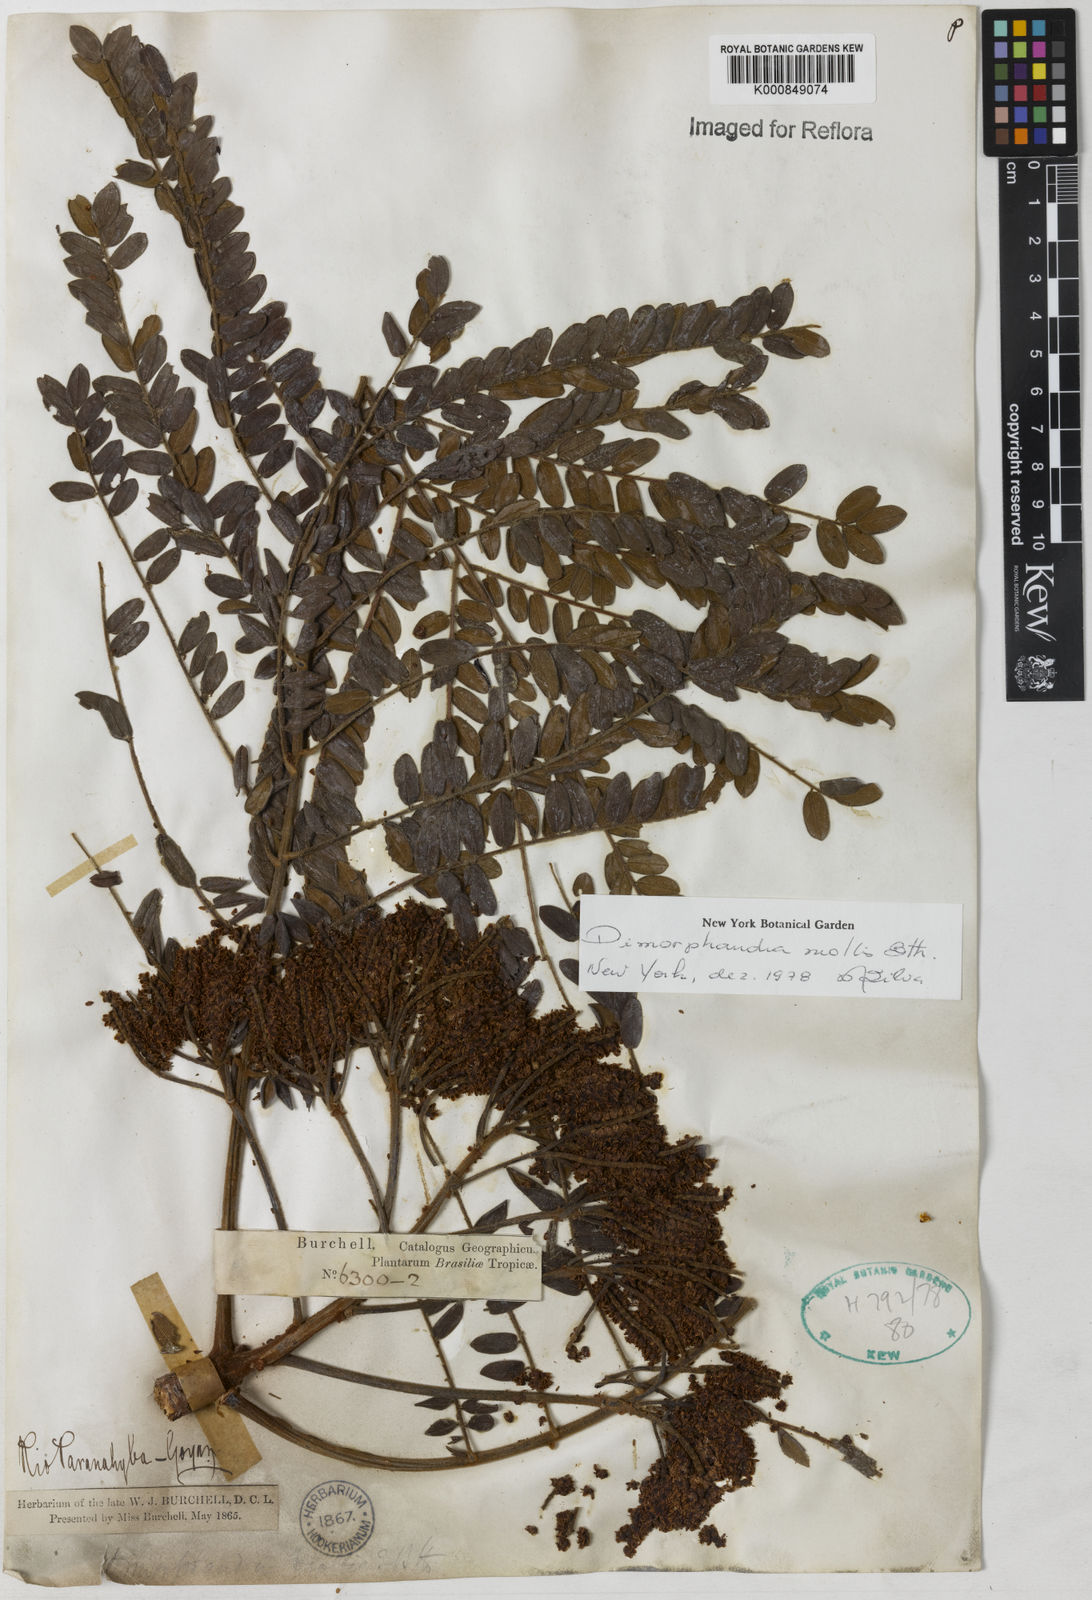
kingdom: Plantae
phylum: Tracheophyta
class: Magnoliopsida
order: Fabales
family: Fabaceae
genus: Dimorphandra
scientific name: Dimorphandra mollis
